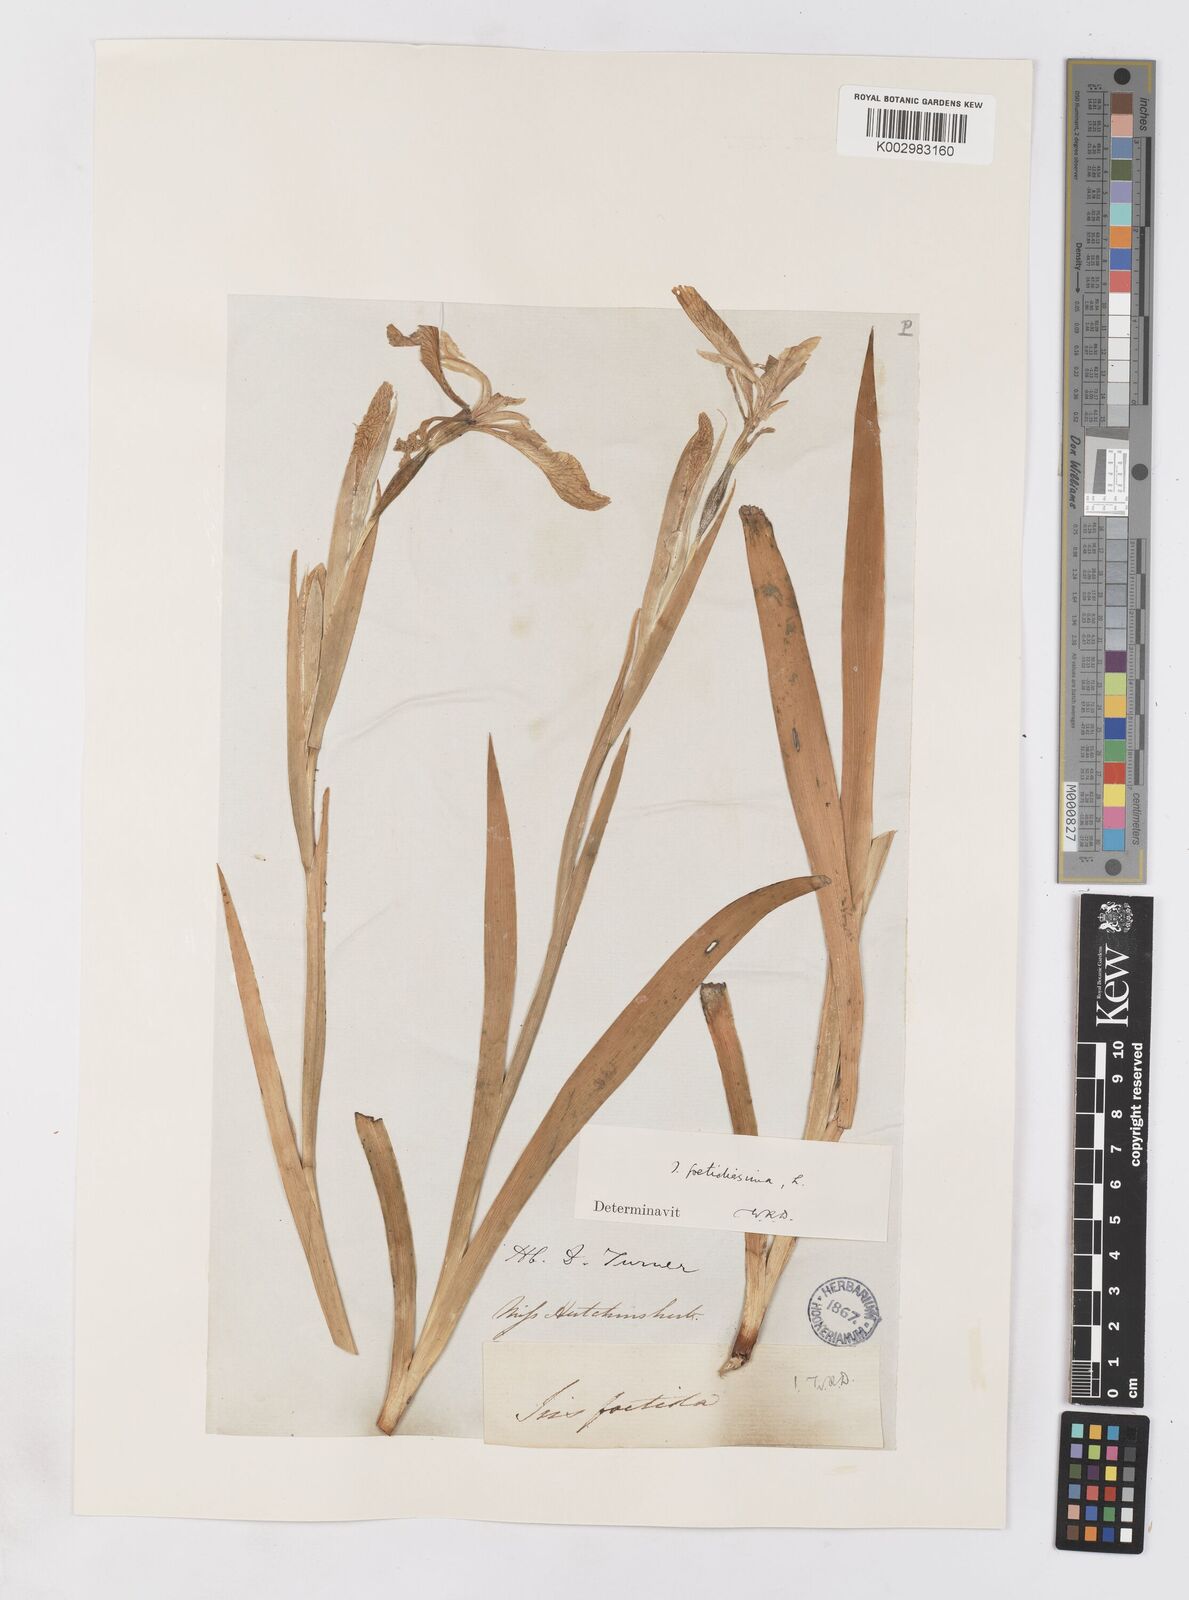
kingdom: Plantae
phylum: Tracheophyta
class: Liliopsida
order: Asparagales
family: Iridaceae
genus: Iris
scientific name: Iris foetidissima
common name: Stinking iris
